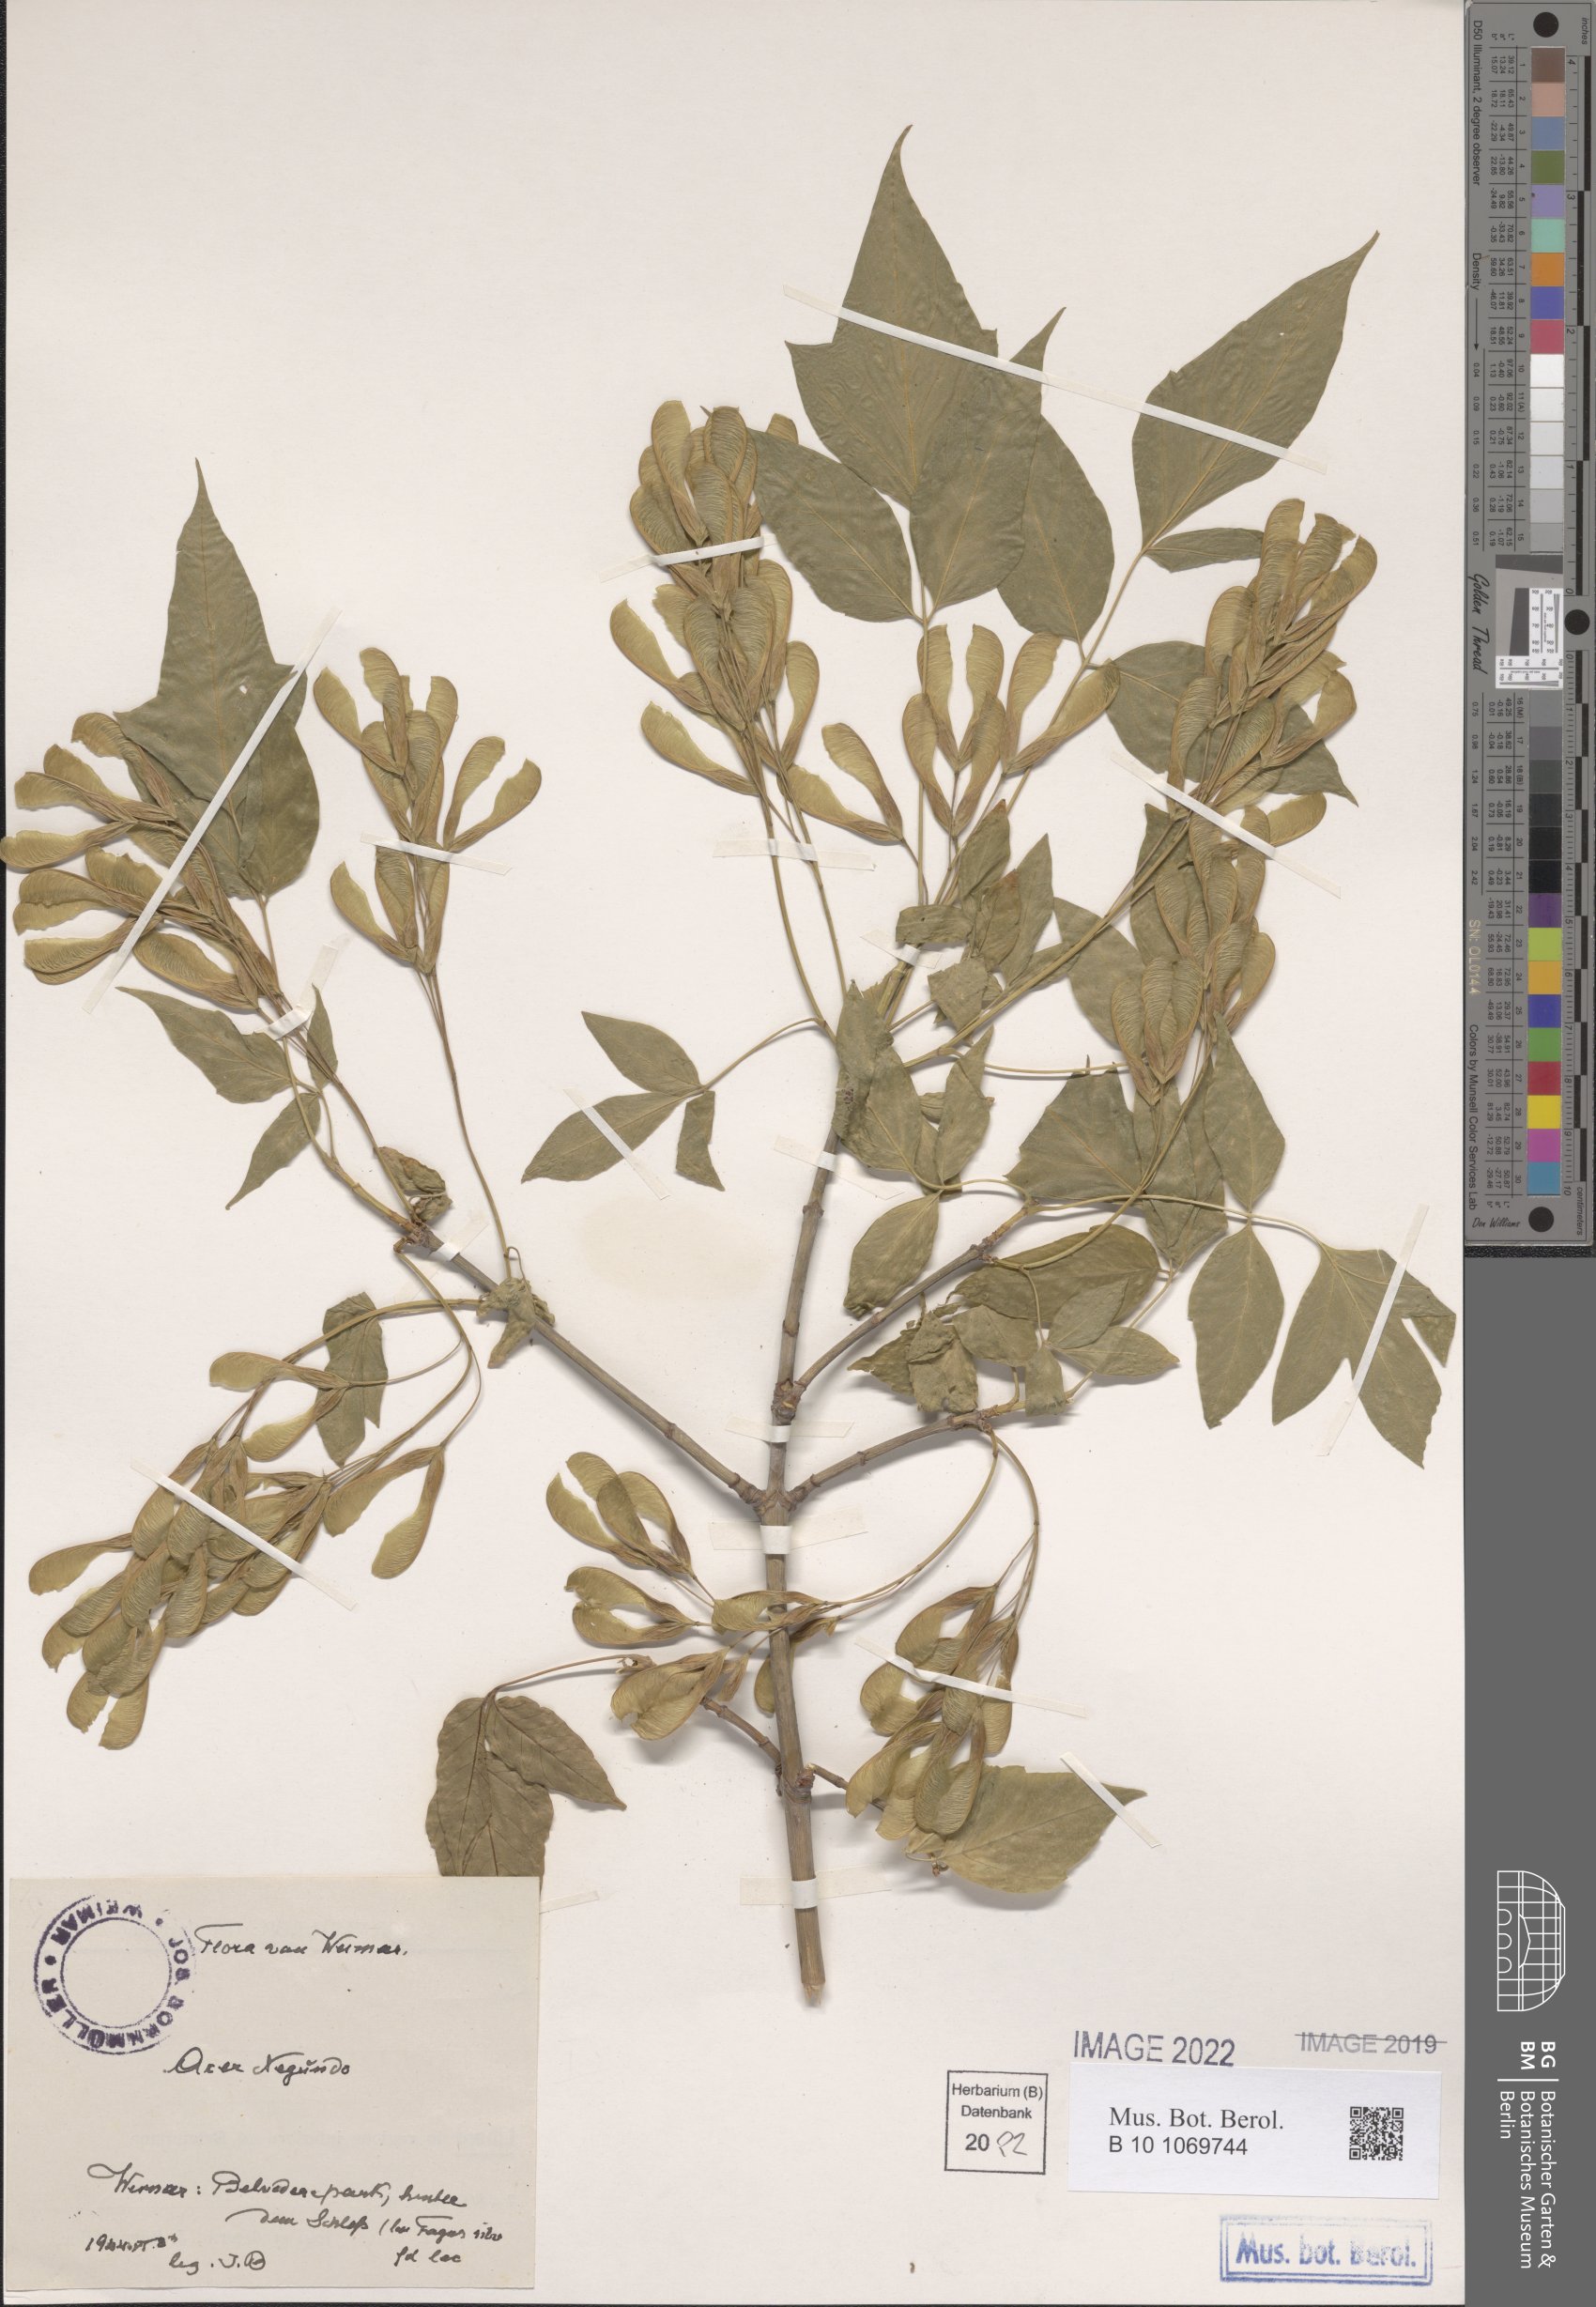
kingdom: Plantae
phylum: Tracheophyta
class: Magnoliopsida
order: Sapindales
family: Sapindaceae
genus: Acer
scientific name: Acer negundo
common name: Ashleaf maple
